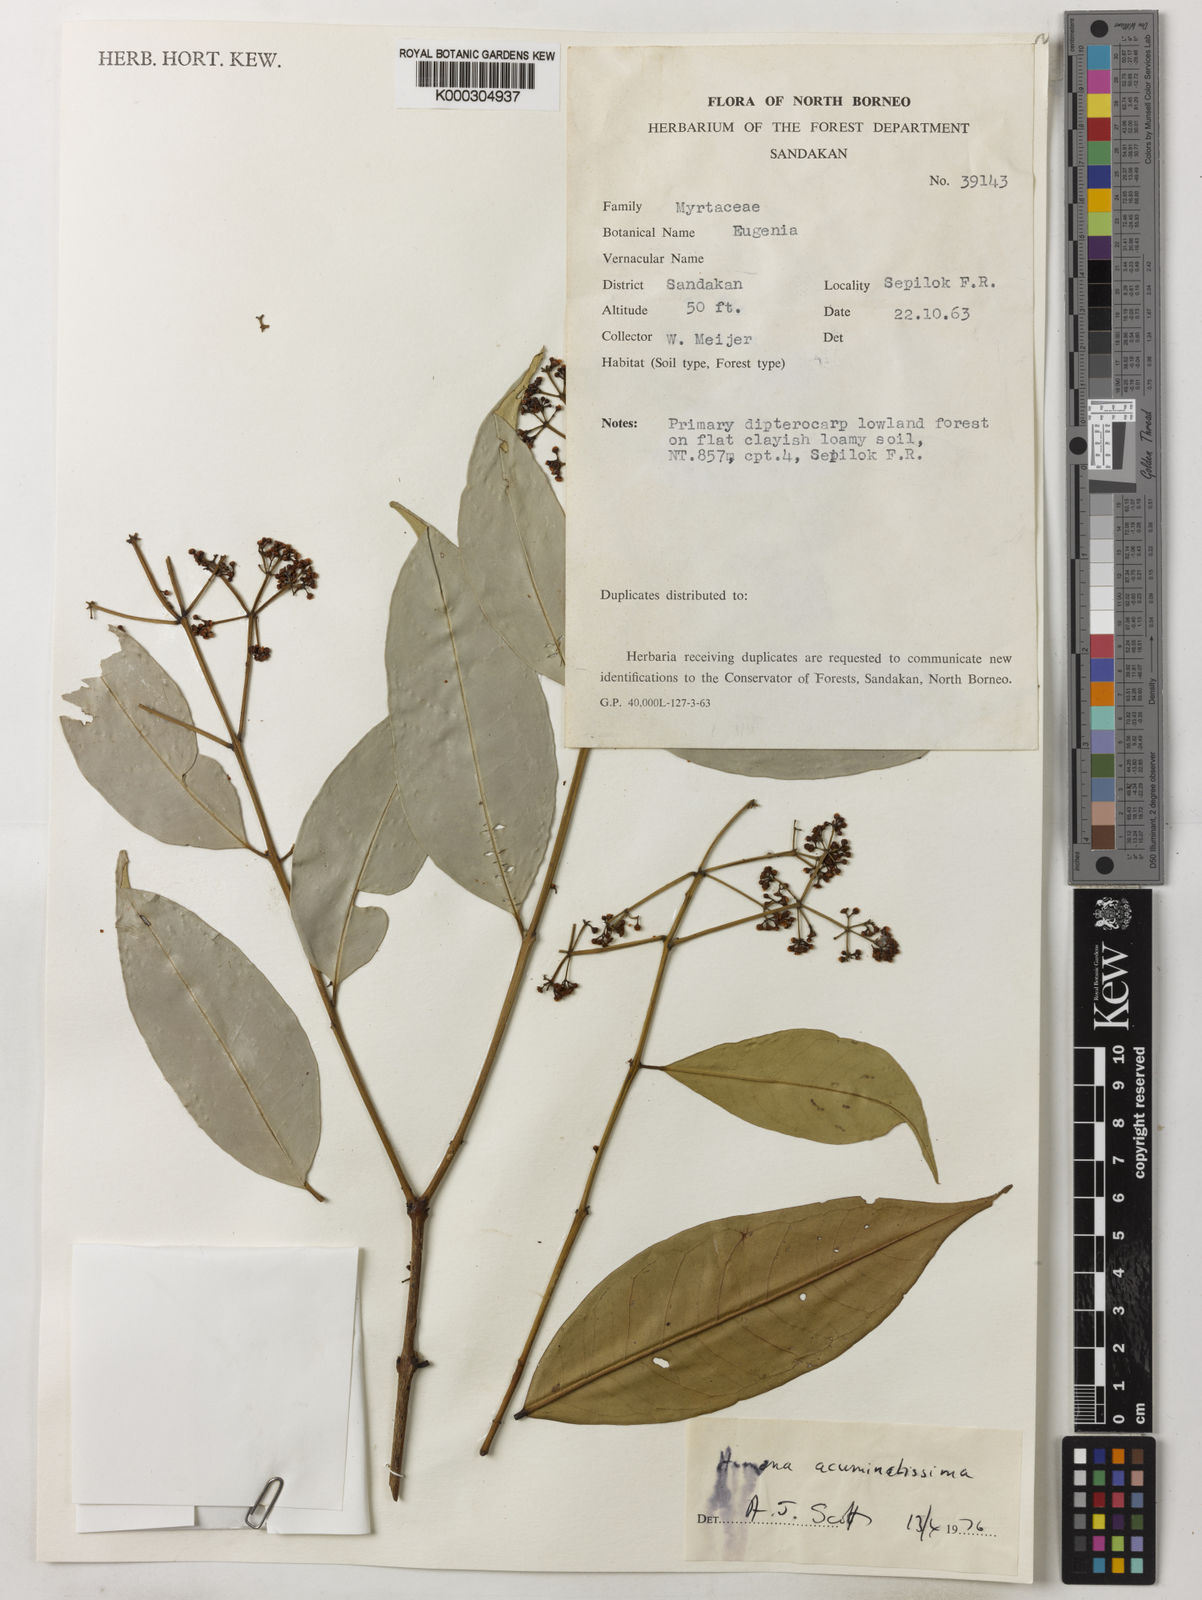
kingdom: Plantae
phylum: Tracheophyta
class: Magnoliopsida
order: Myrtales
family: Myrtaceae
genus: Syzygium
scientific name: Syzygium acuminatissimum
